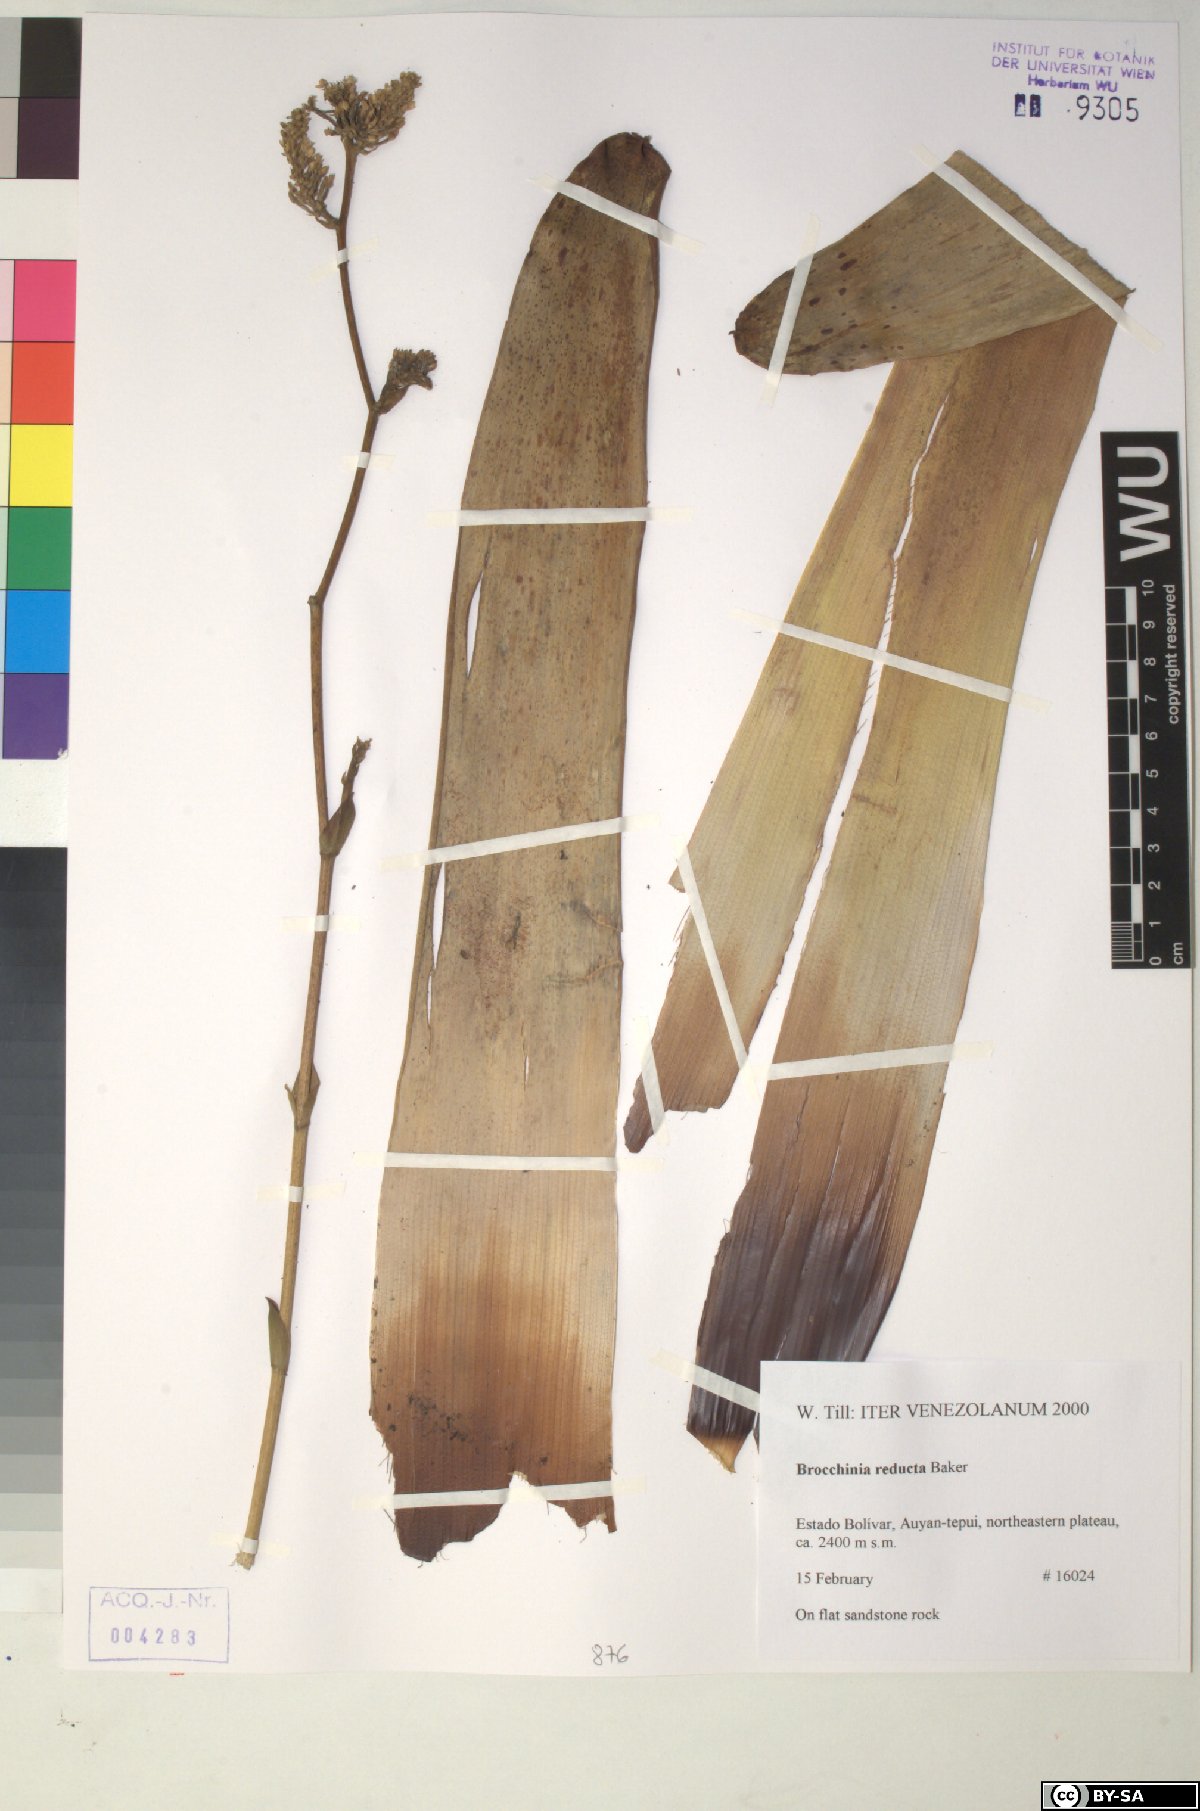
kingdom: Plantae
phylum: Tracheophyta
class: Liliopsida
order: Poales
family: Bromeliaceae
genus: Brocchinia
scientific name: Brocchinia reducta
